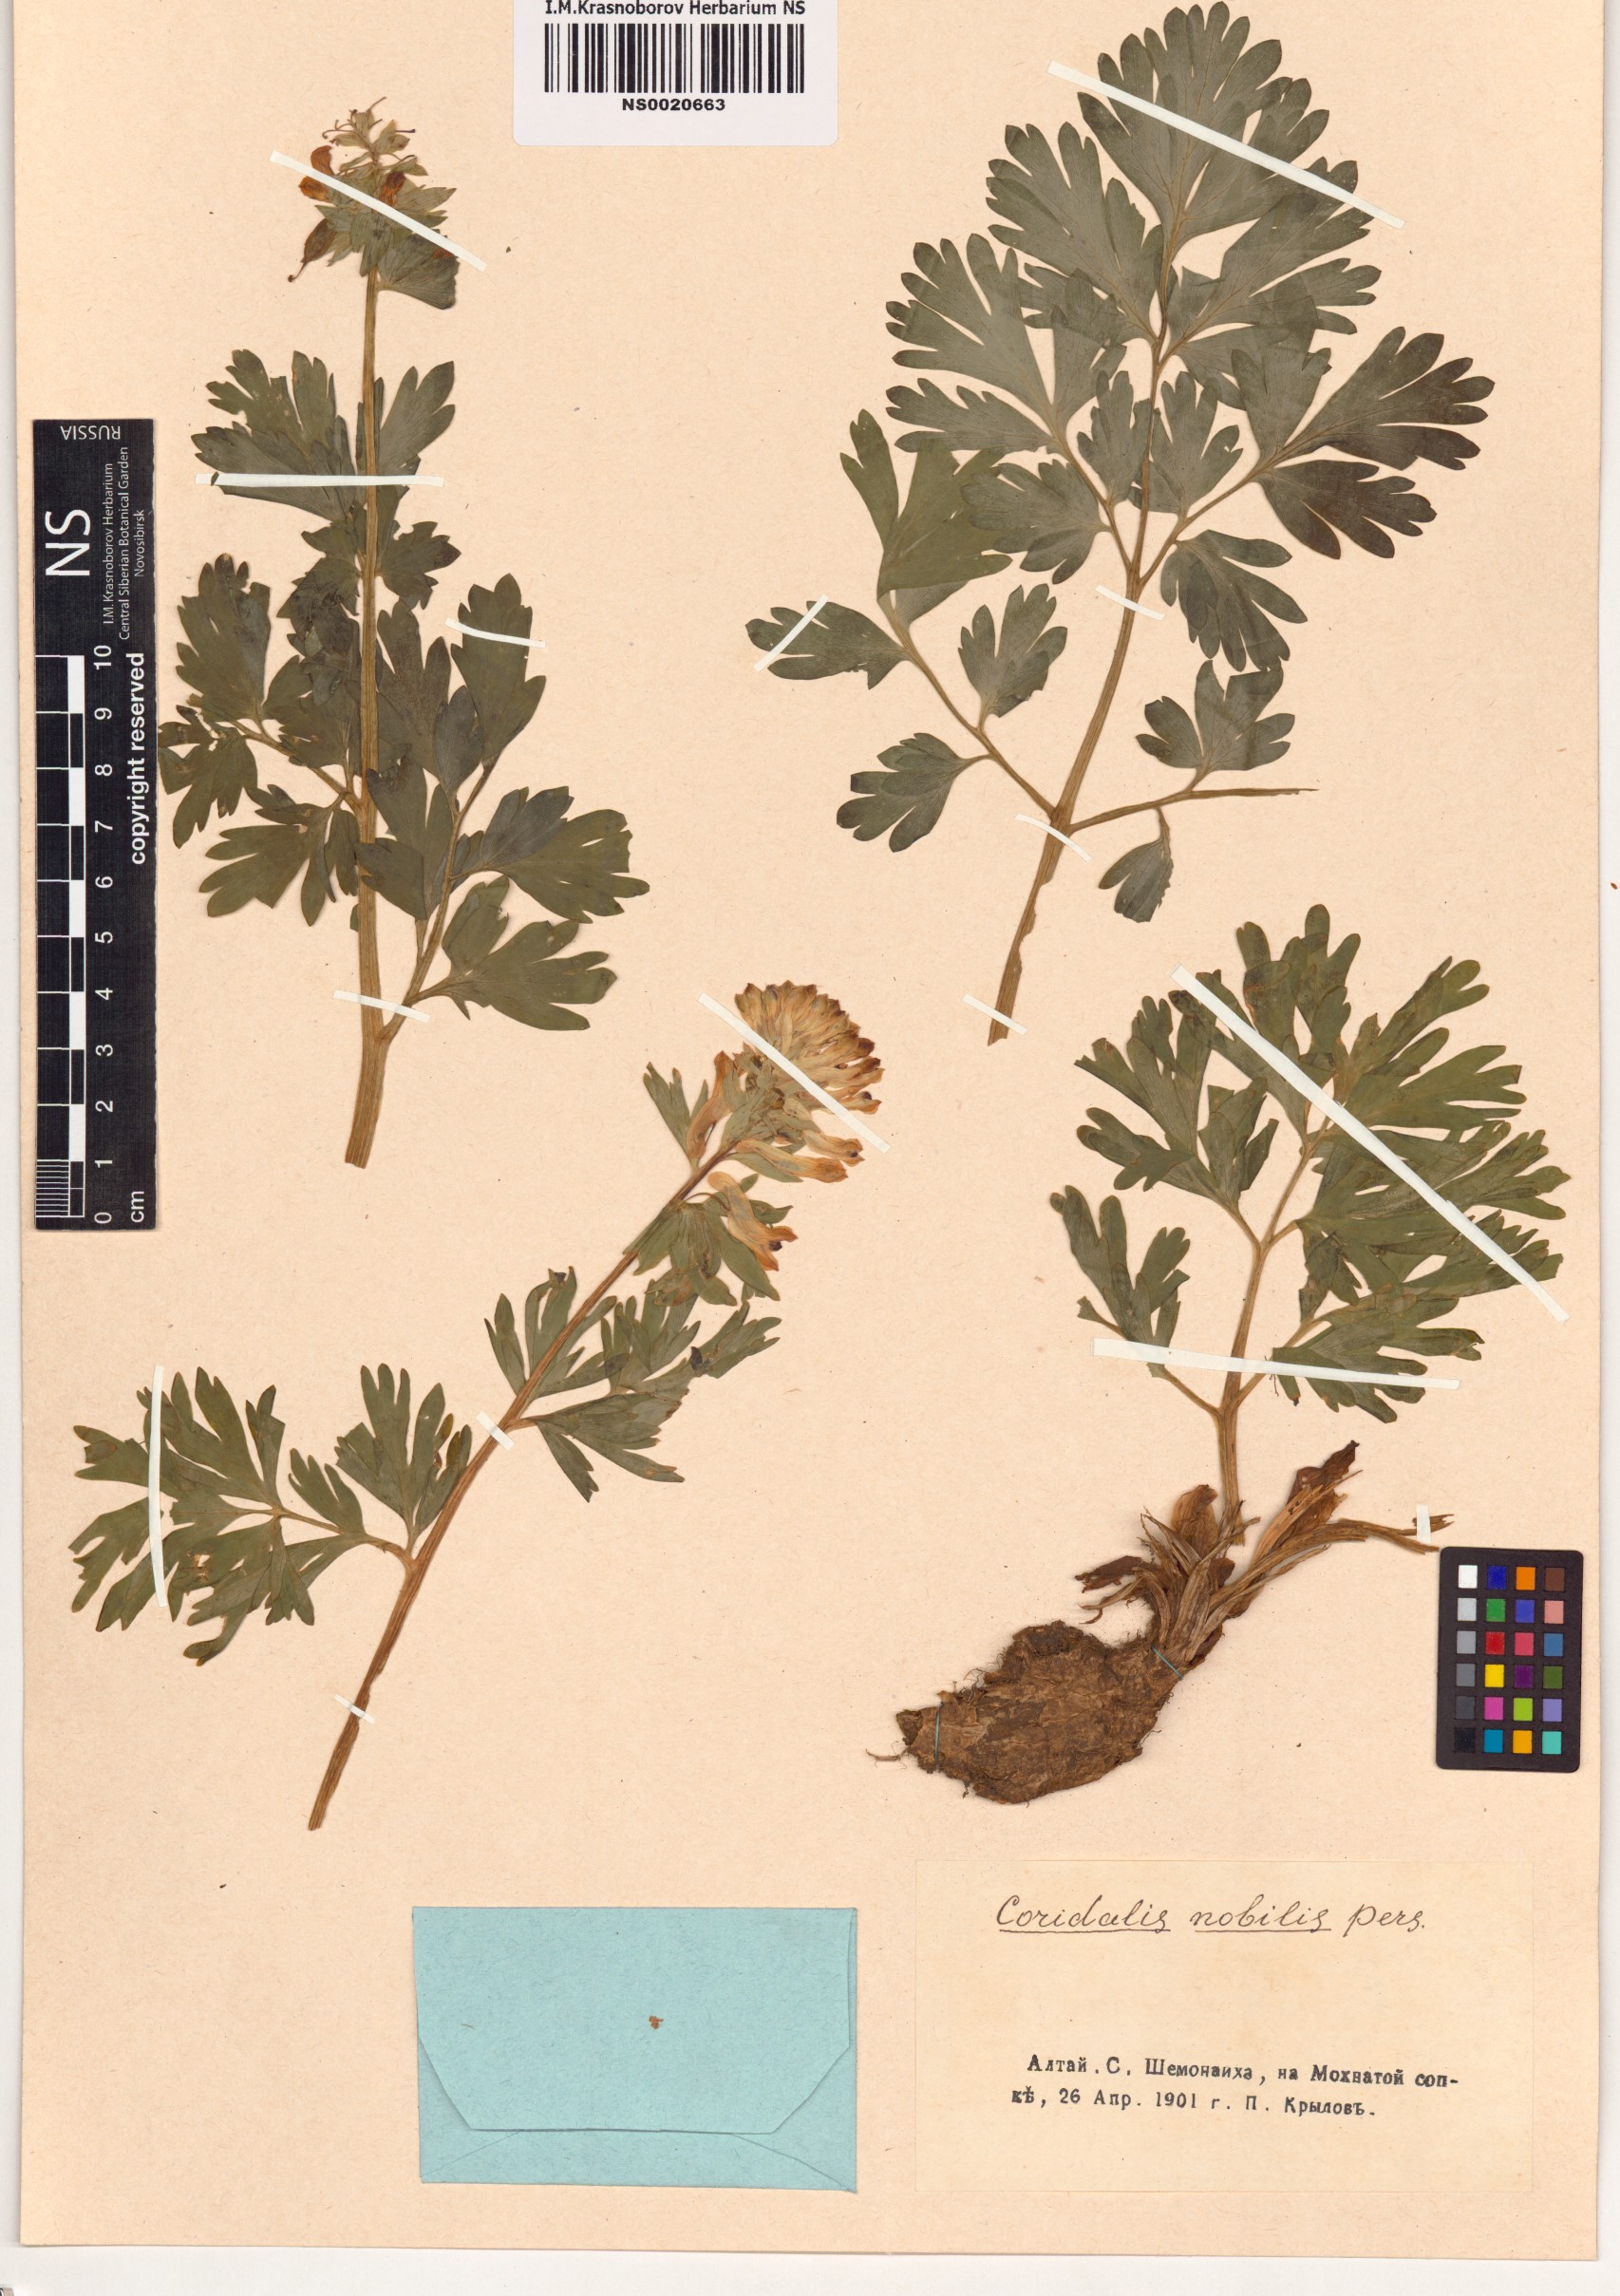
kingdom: Plantae
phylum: Tracheophyta
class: Magnoliopsida
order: Ranunculales
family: Papaveraceae
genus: Corydalis
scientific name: Corydalis nobilis
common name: Siberian corydalis
